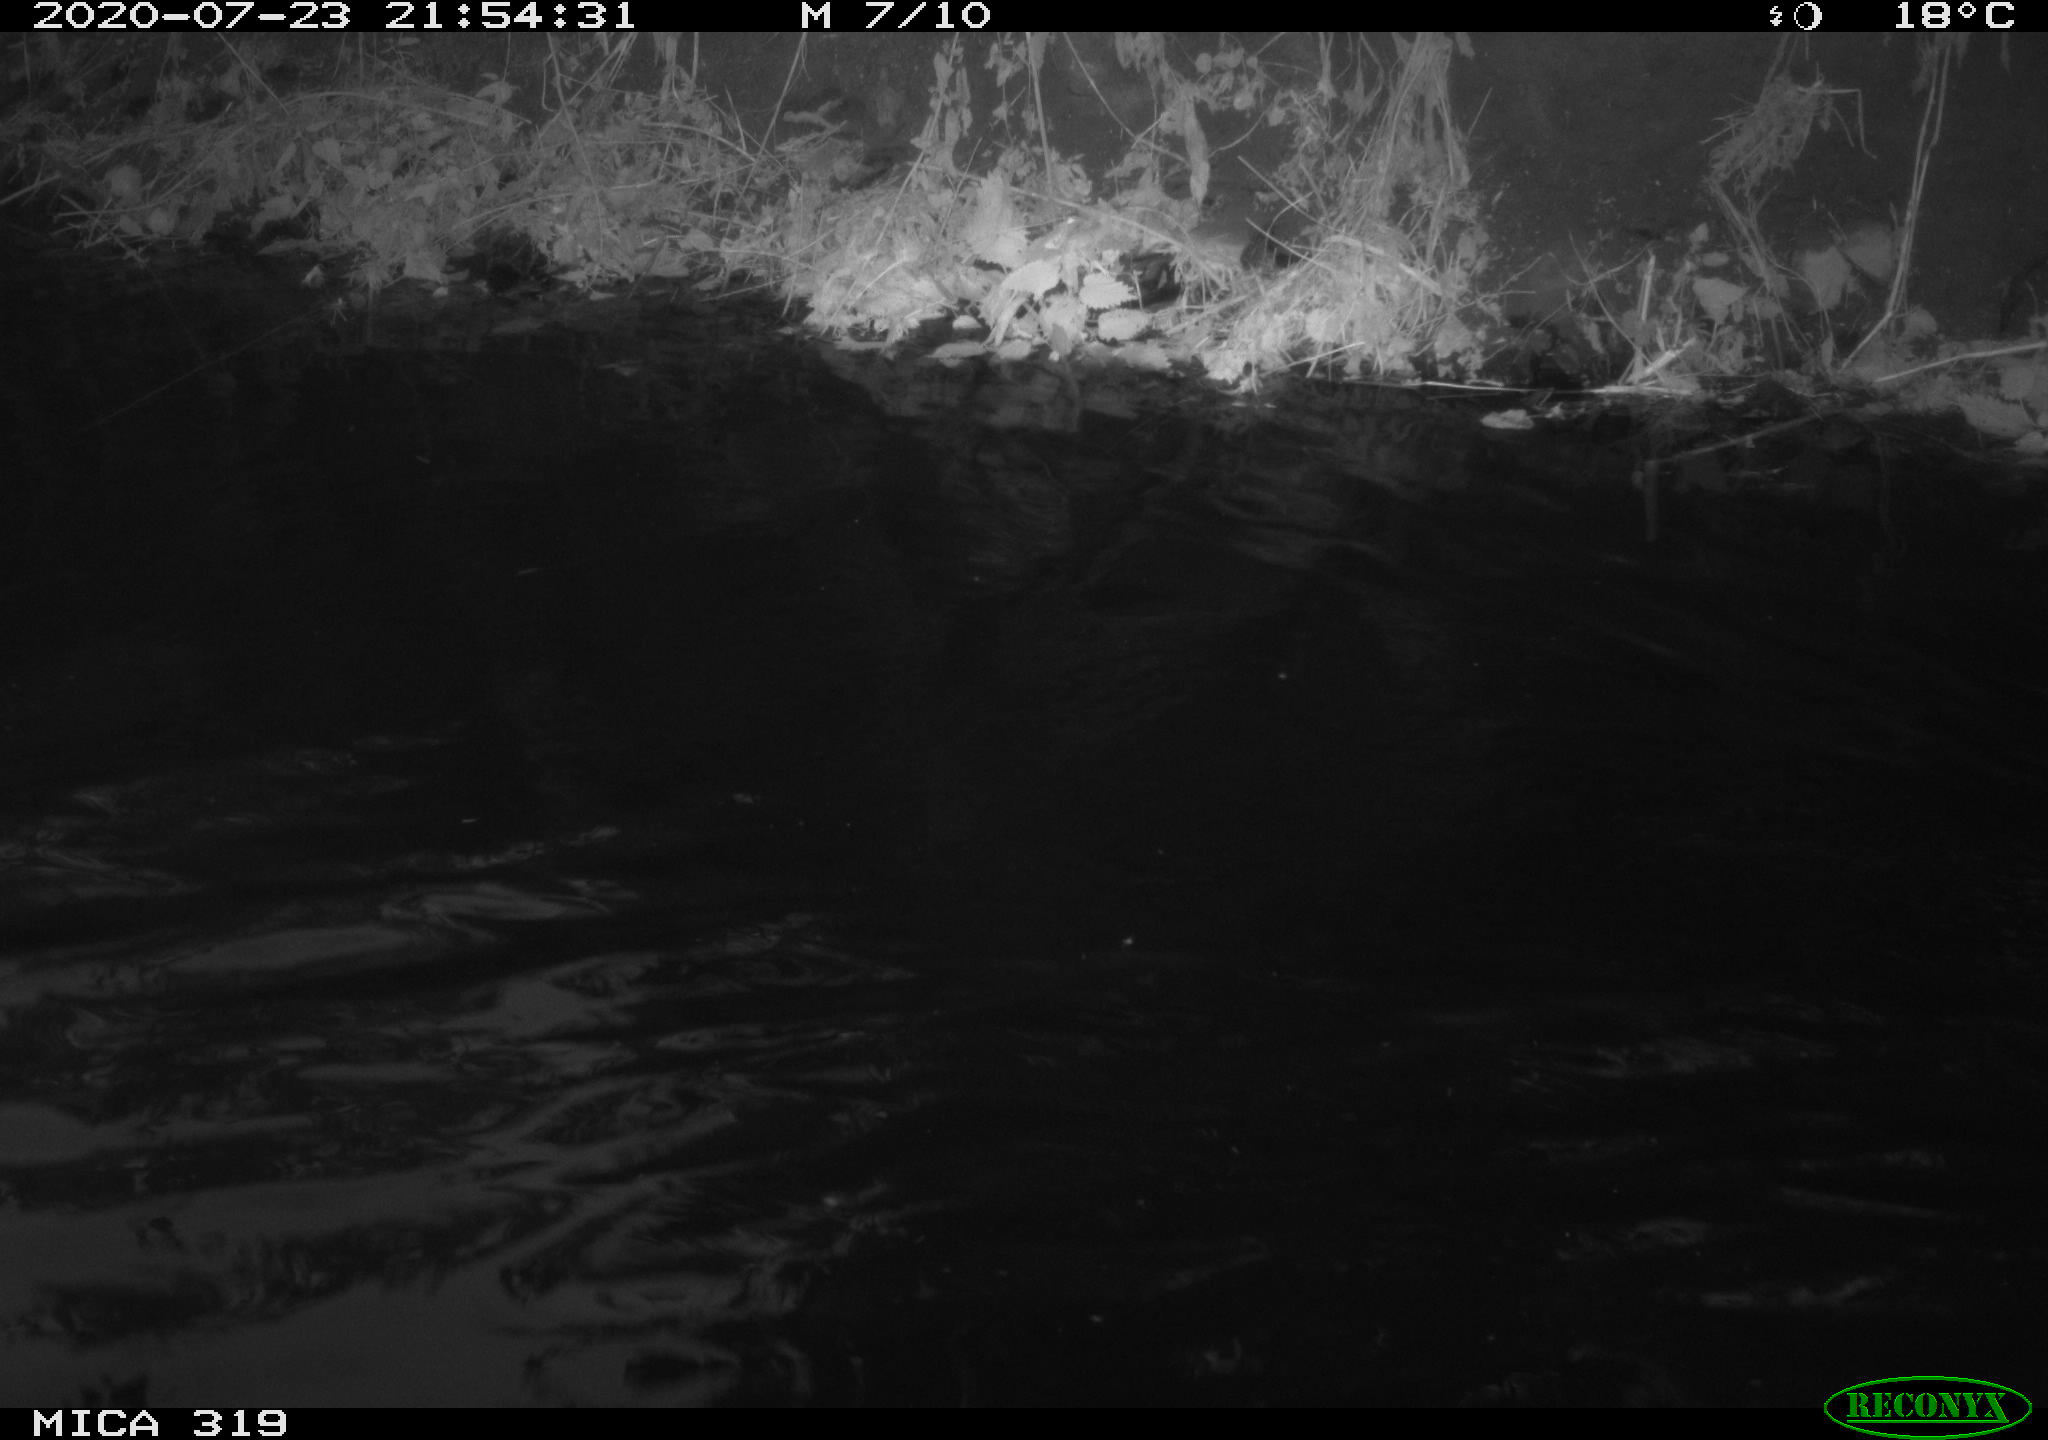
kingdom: Animalia
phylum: Chordata
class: Aves
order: Anseriformes
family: Anatidae
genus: Anas
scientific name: Anas platyrhynchos
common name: Mallard
